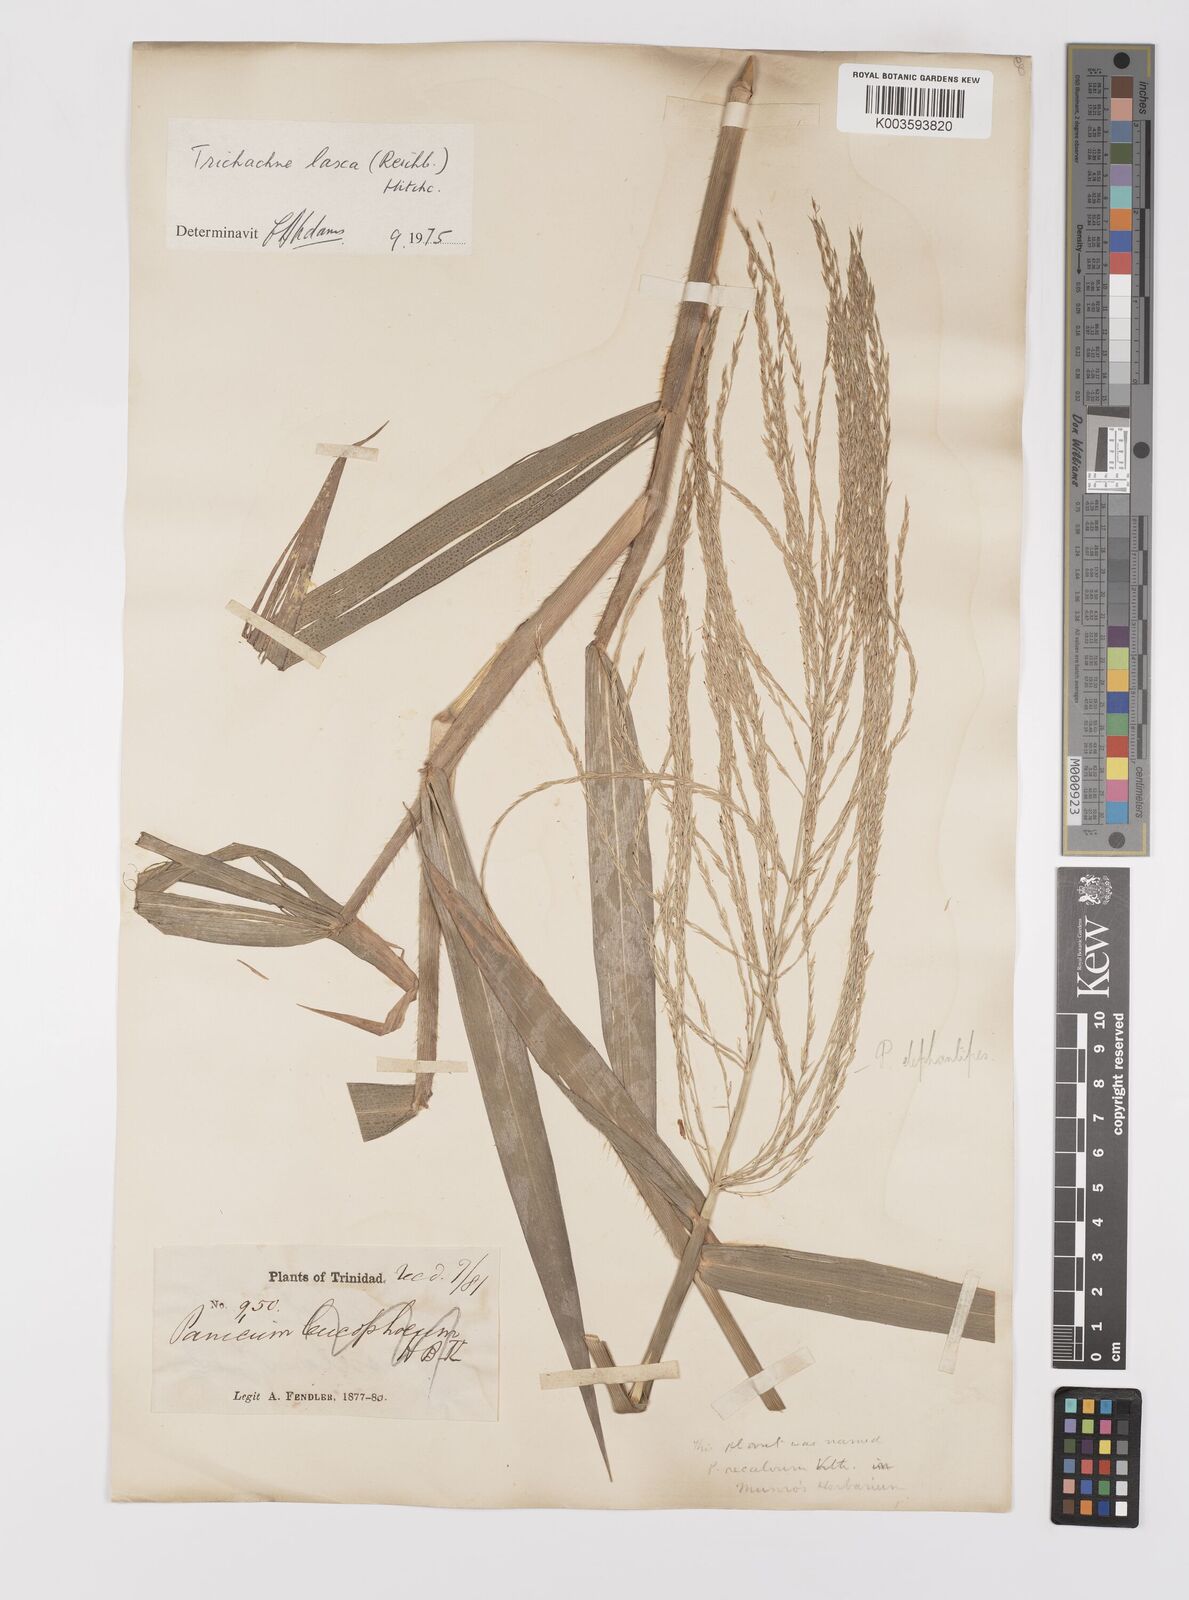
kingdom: Plantae
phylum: Tracheophyta
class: Liliopsida
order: Poales
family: Poaceae
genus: Digitaria
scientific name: Digitaria laxa
